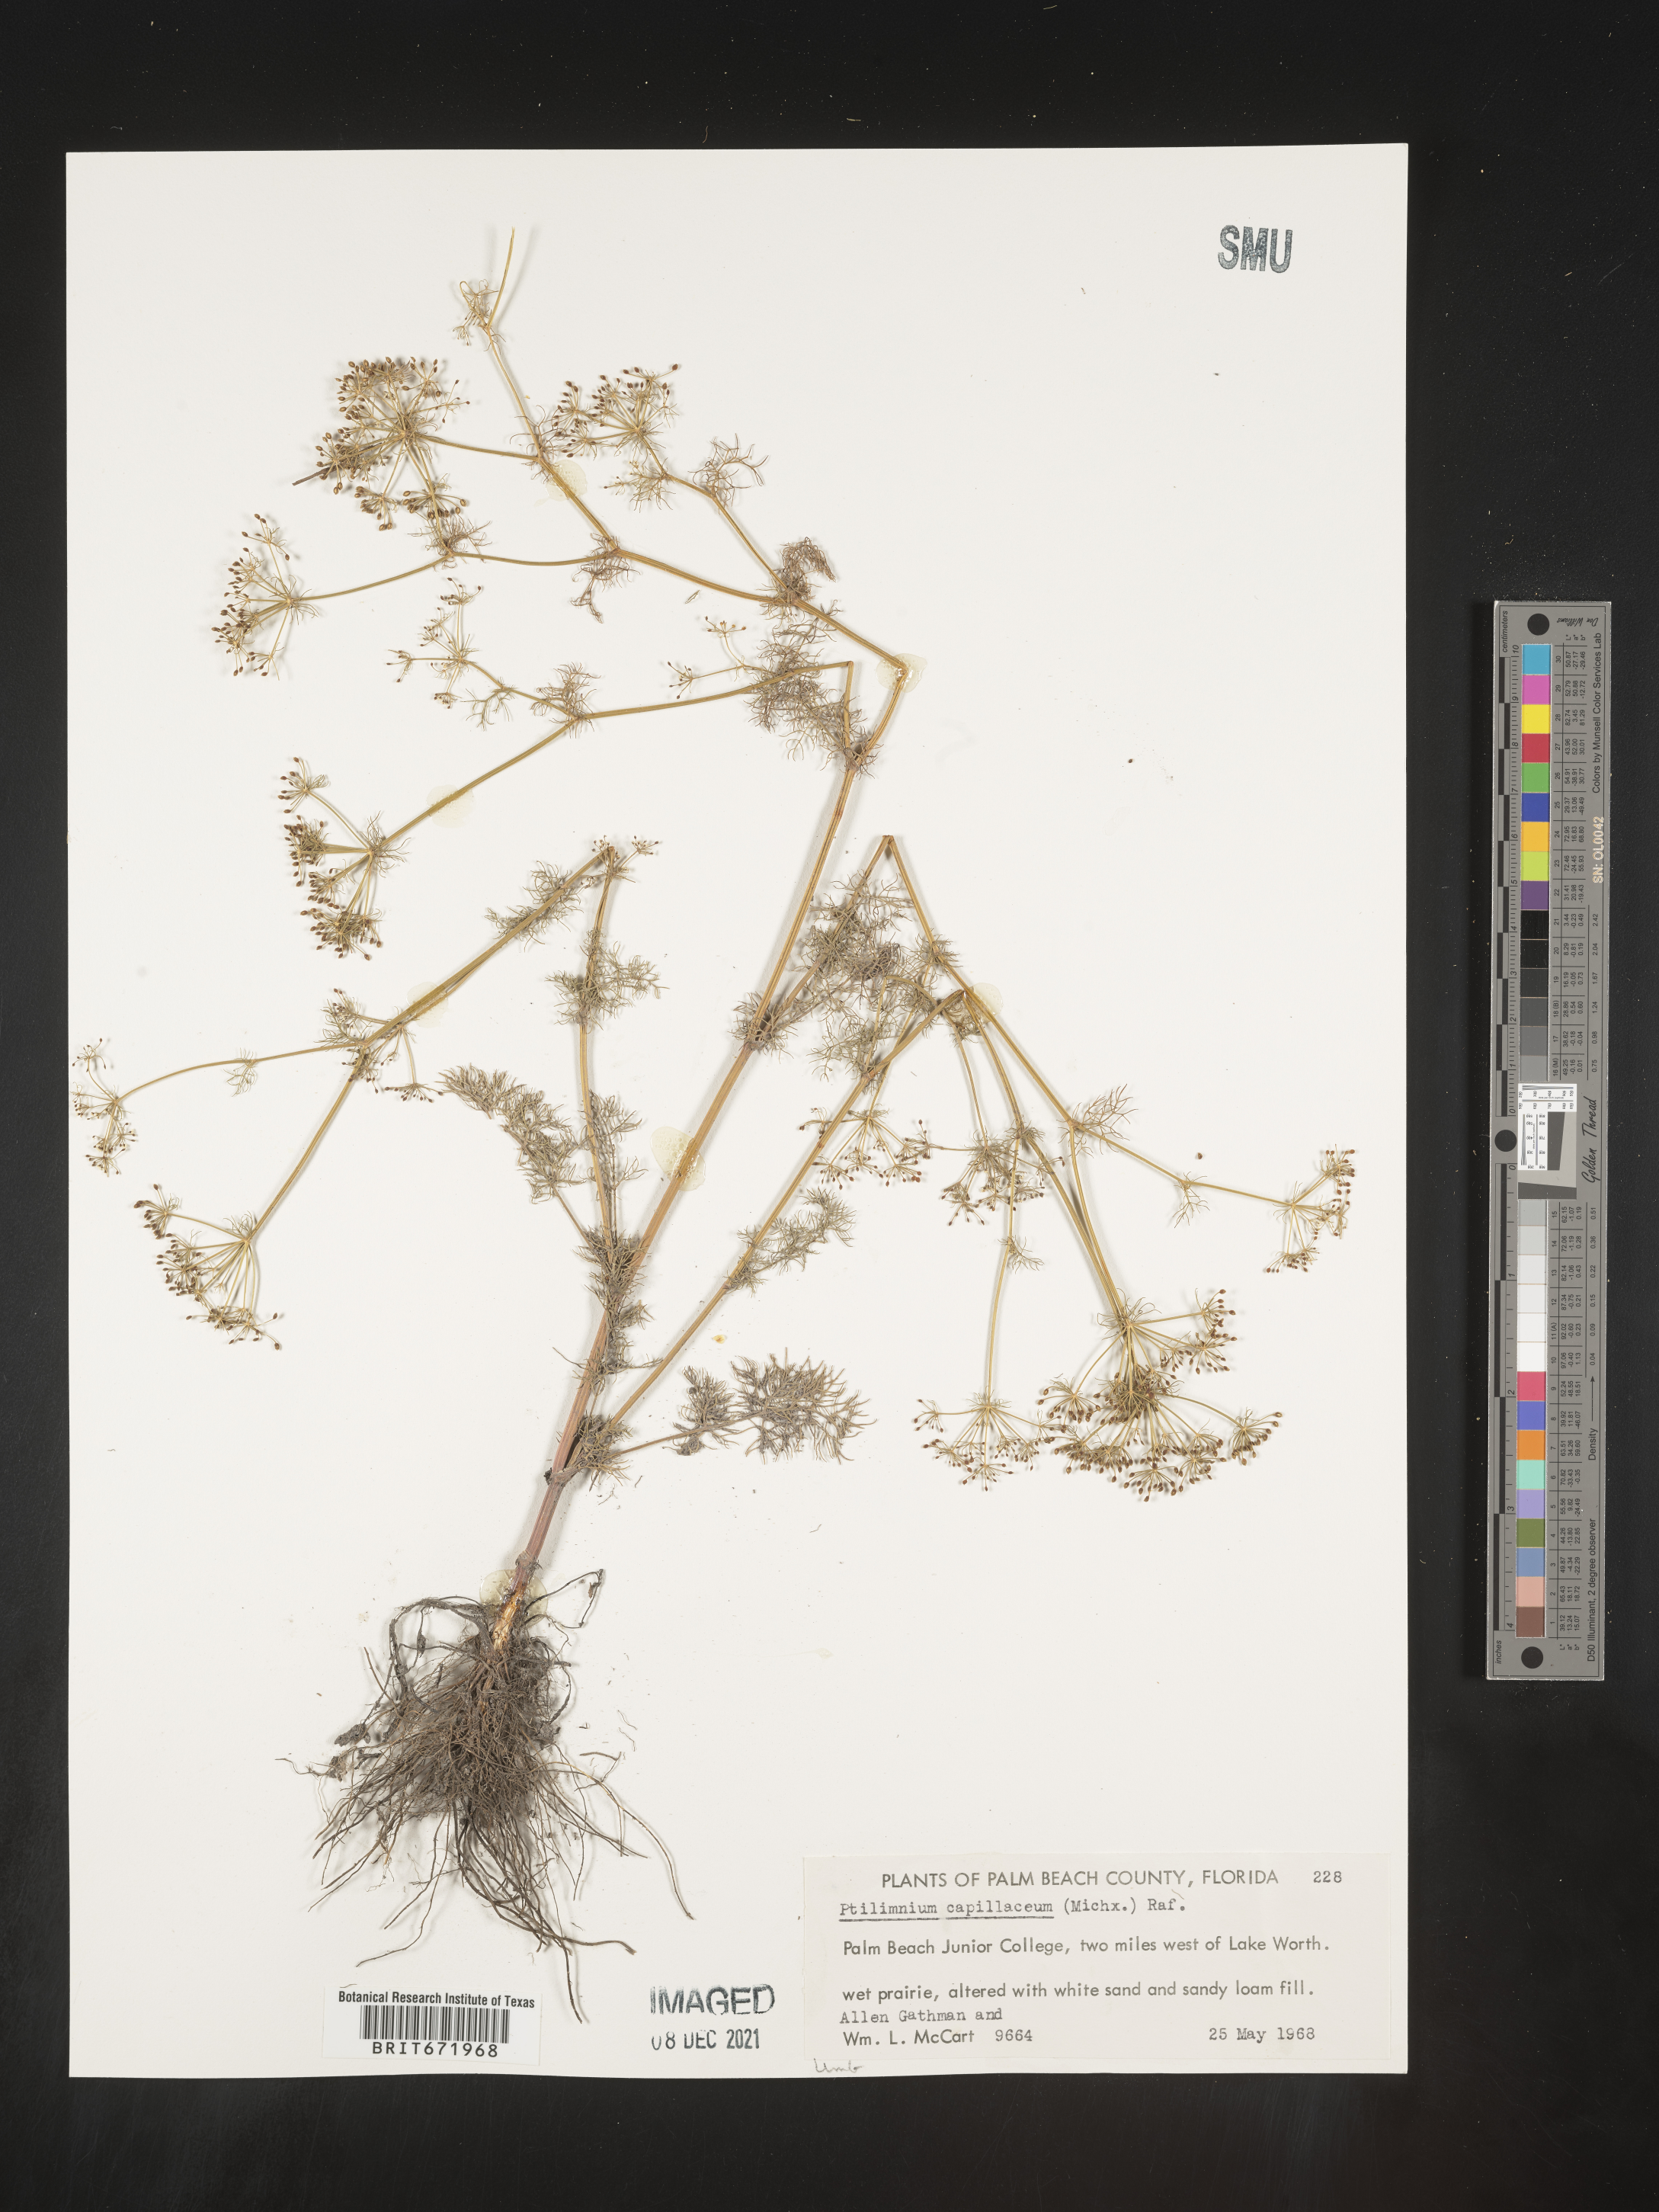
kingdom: Plantae
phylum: Tracheophyta
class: Magnoliopsida
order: Apiales
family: Apiaceae
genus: Ptilimnium
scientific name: Ptilimnium capillaceum
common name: Herbwilliam
